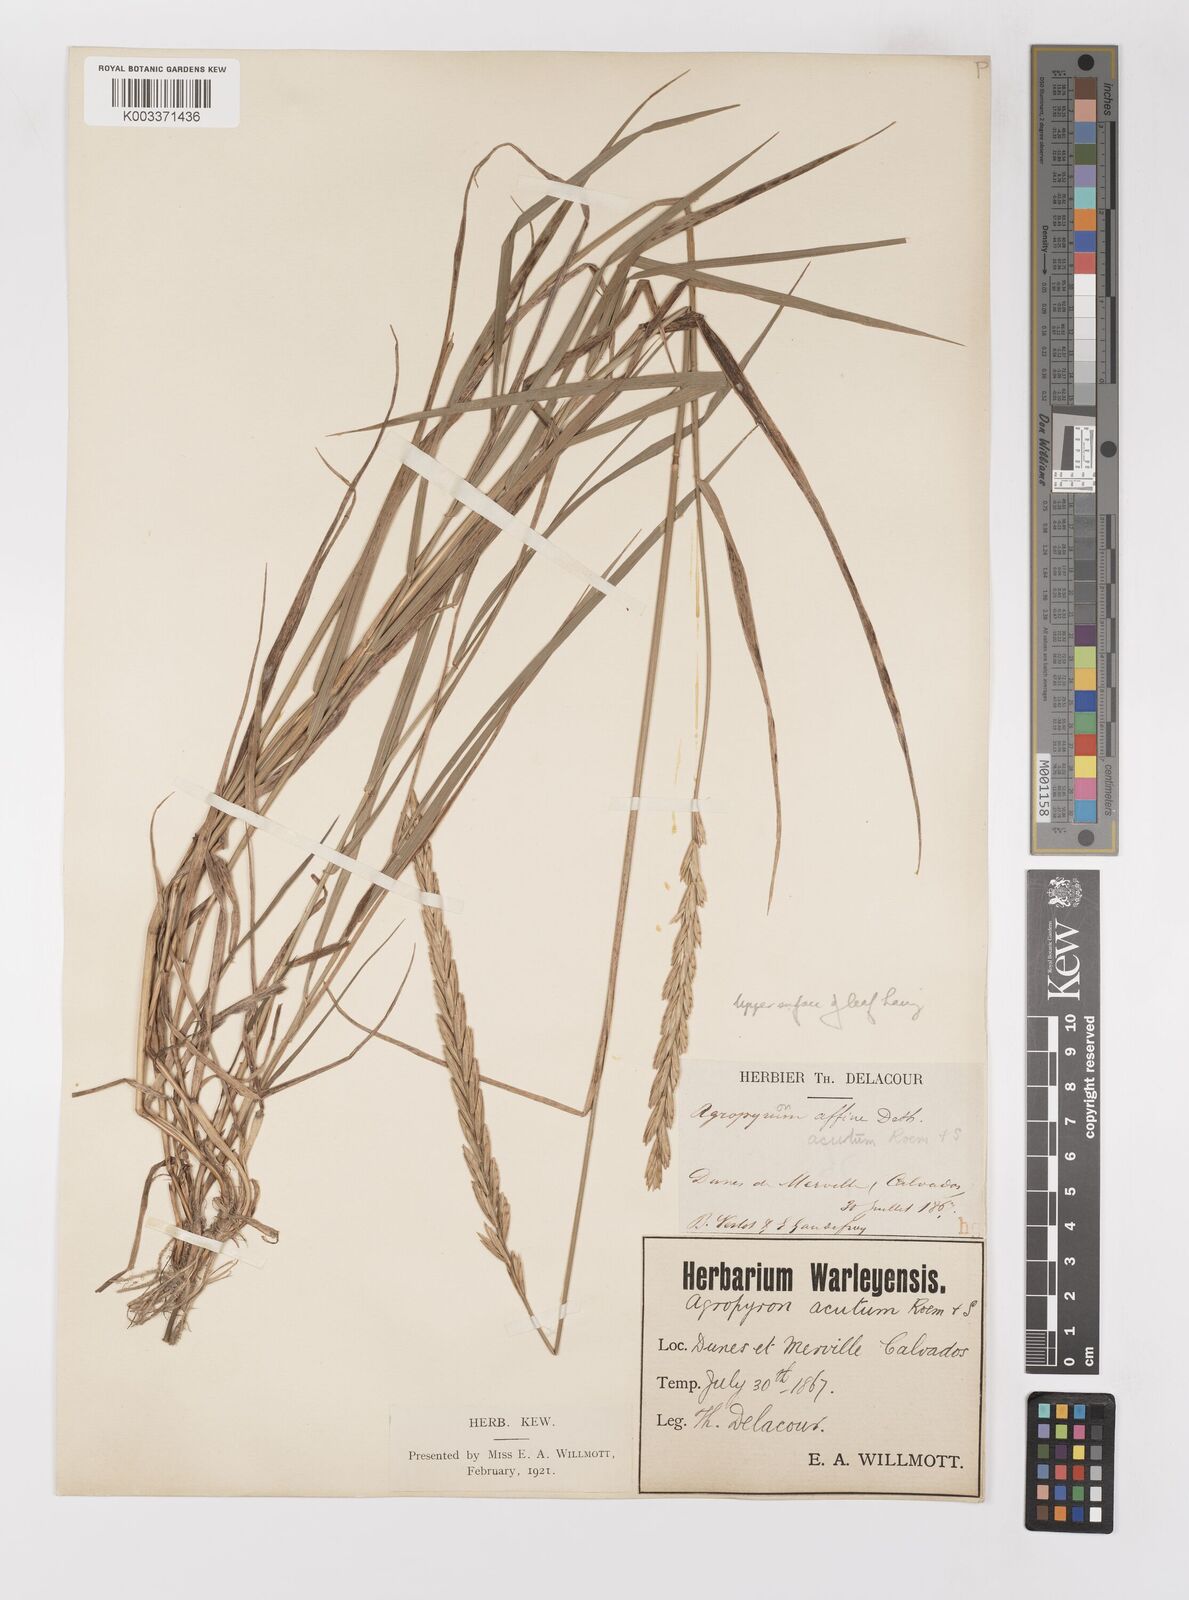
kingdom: Plantae
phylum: Tracheophyta
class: Liliopsida
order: Poales
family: Poaceae
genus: Elymus
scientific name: Elymus repens
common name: Quackgrass
